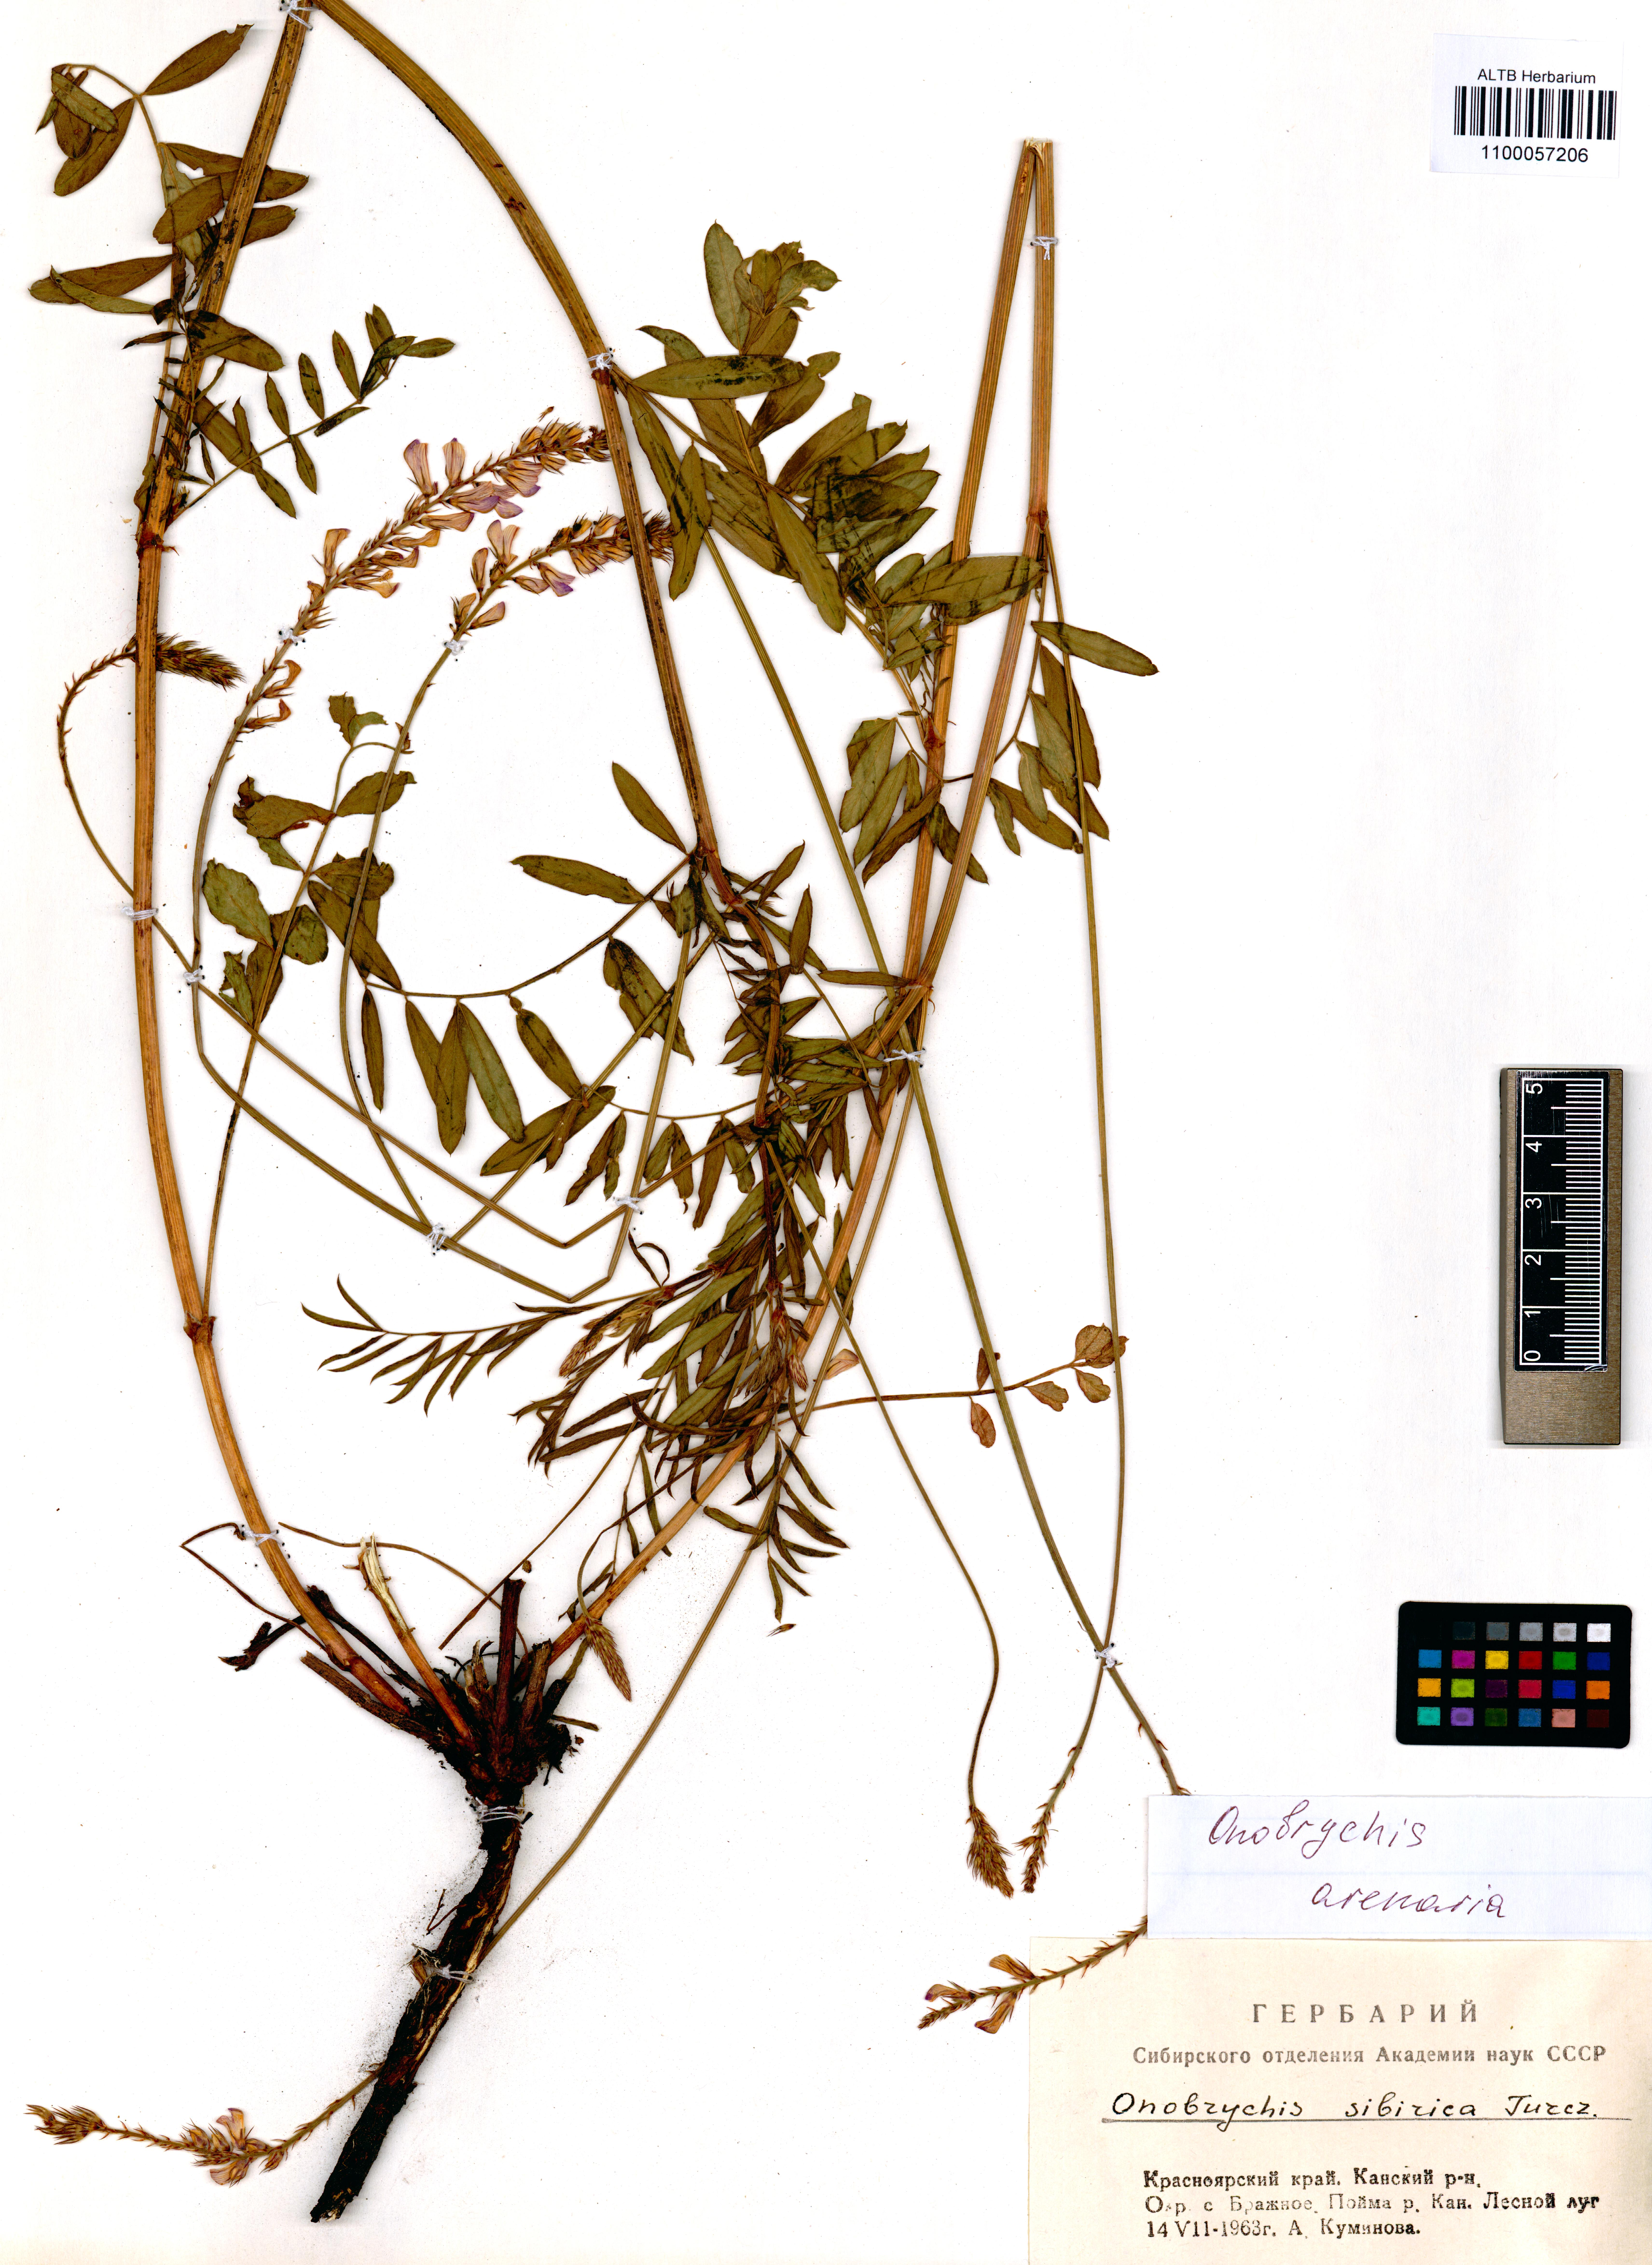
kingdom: Plantae
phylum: Tracheophyta
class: Magnoliopsida
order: Fabales
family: Fabaceae
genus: Onobrychis
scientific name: Onobrychis arenaria
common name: Sand esparcet
